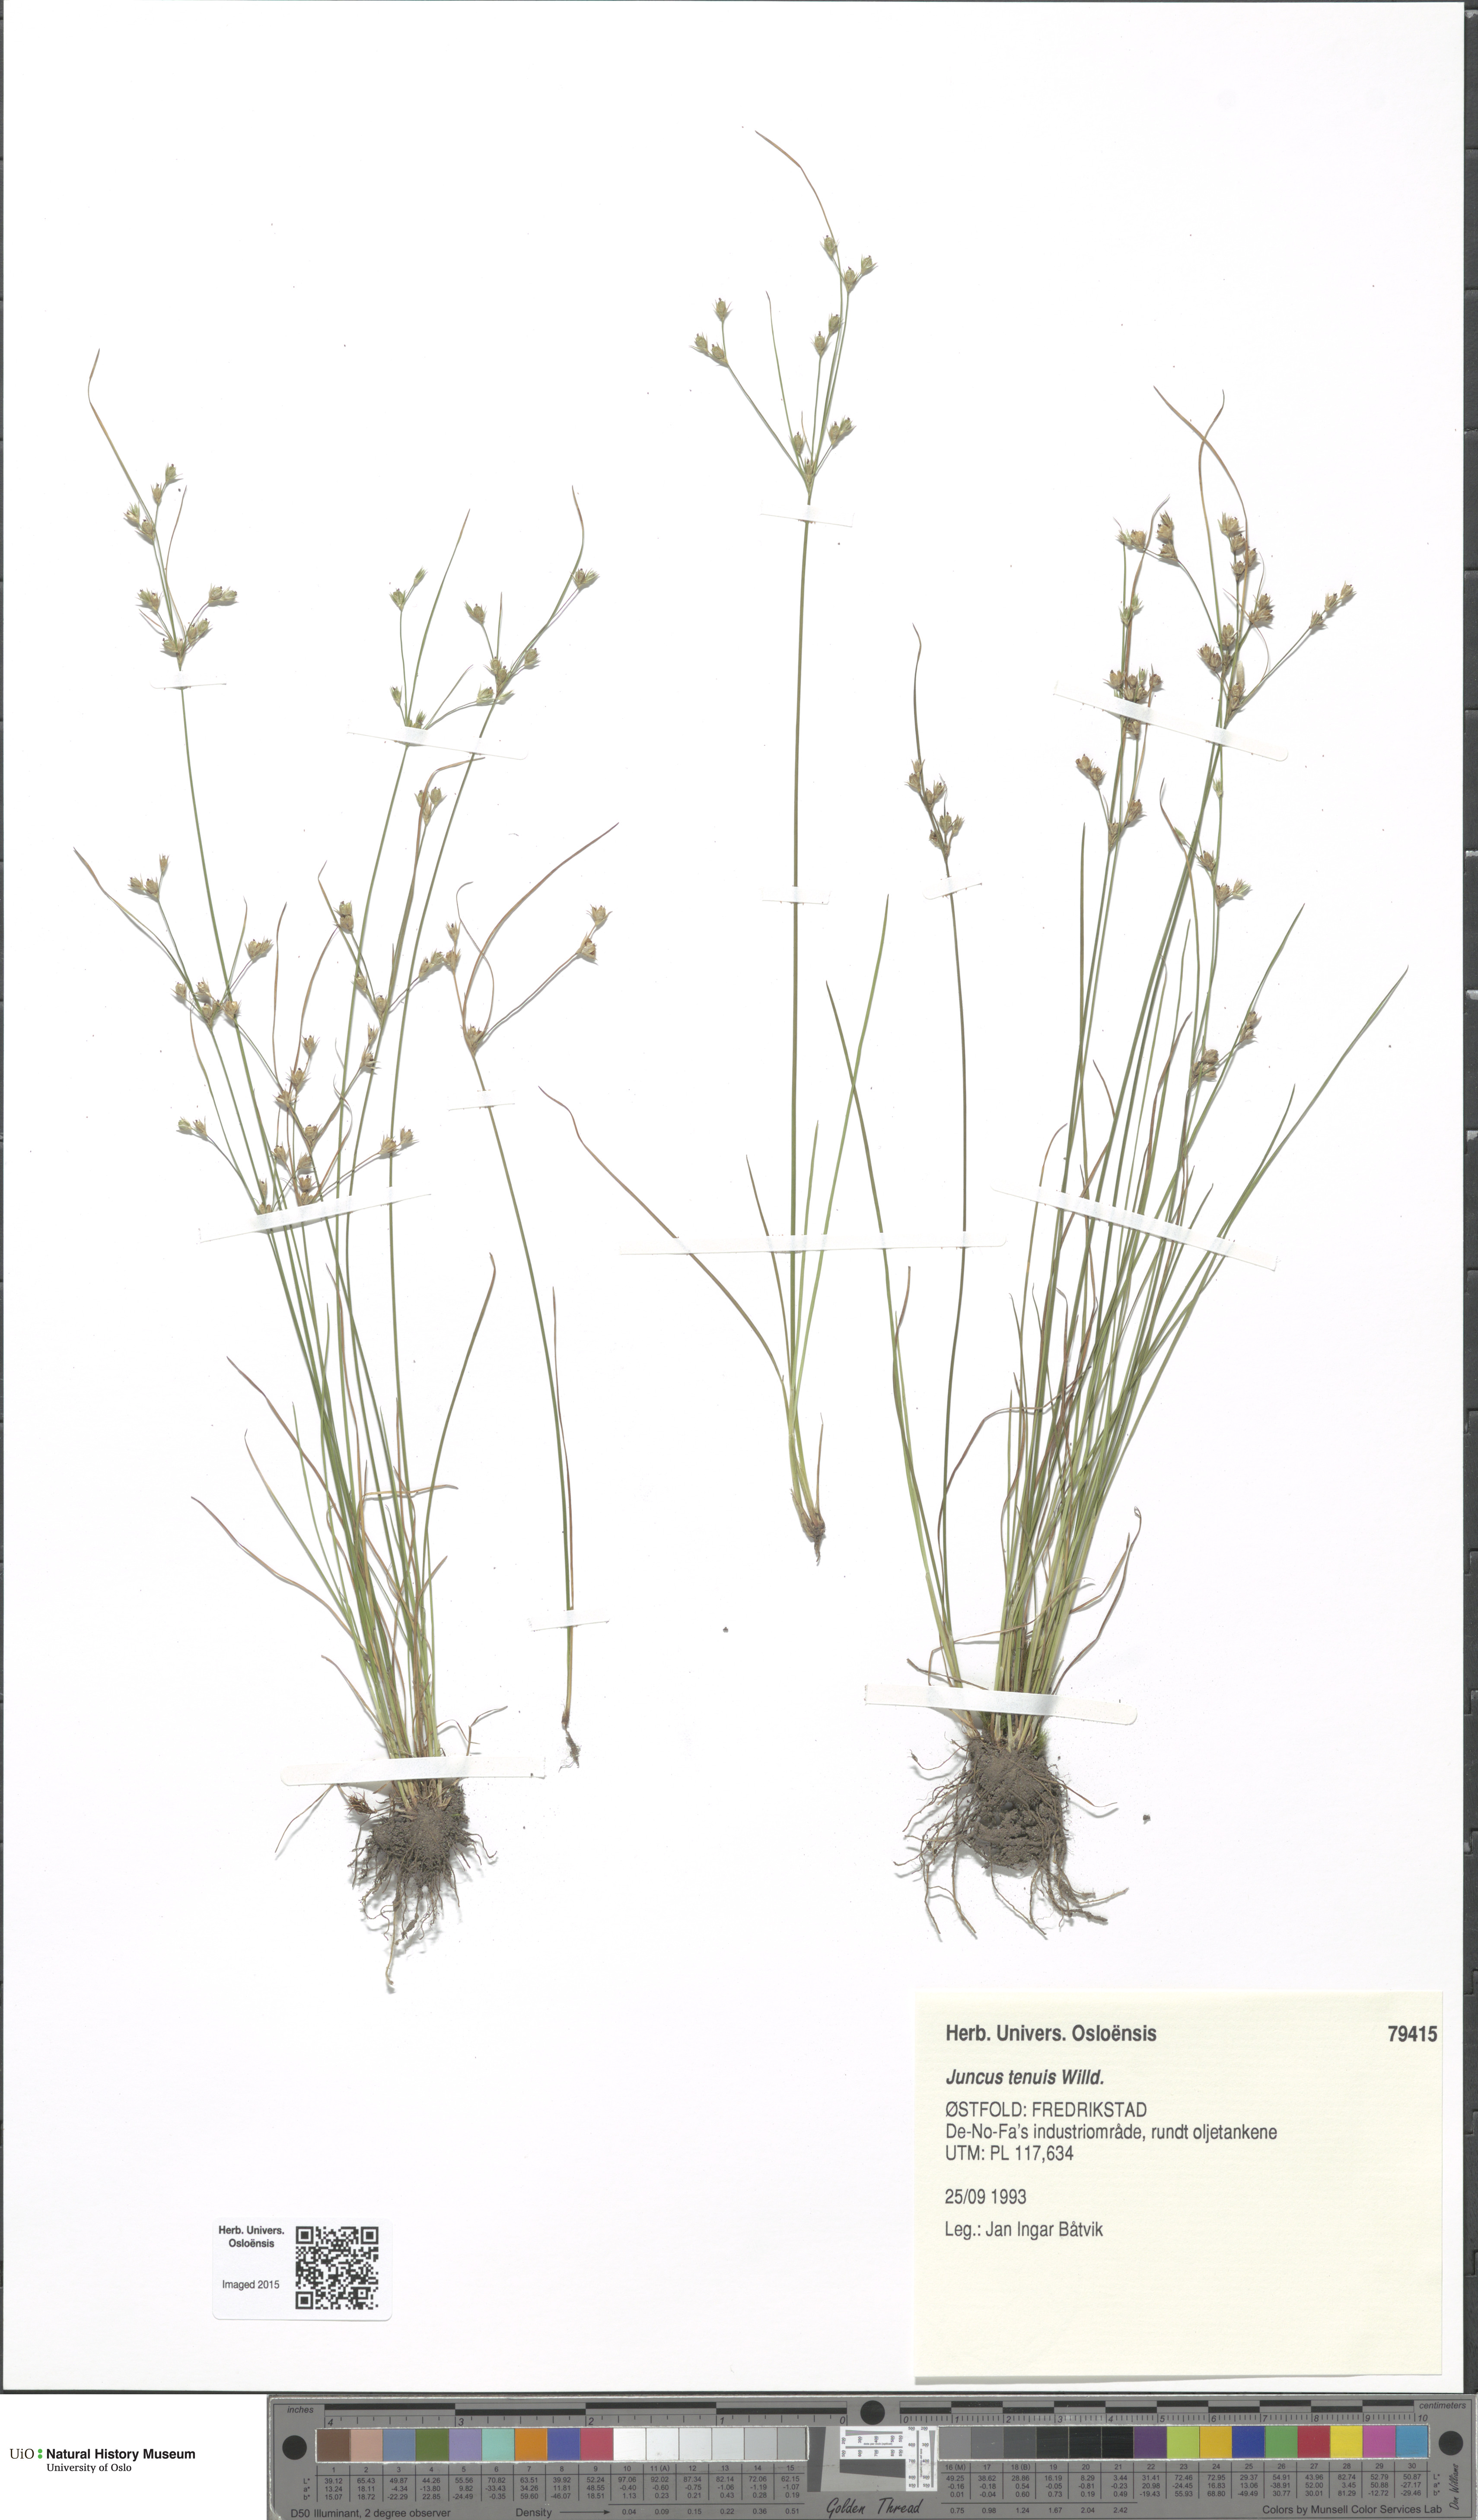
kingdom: Plantae
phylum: Tracheophyta
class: Liliopsida
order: Poales
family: Juncaceae
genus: Juncus
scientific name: Juncus tenuis
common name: Slender rush
